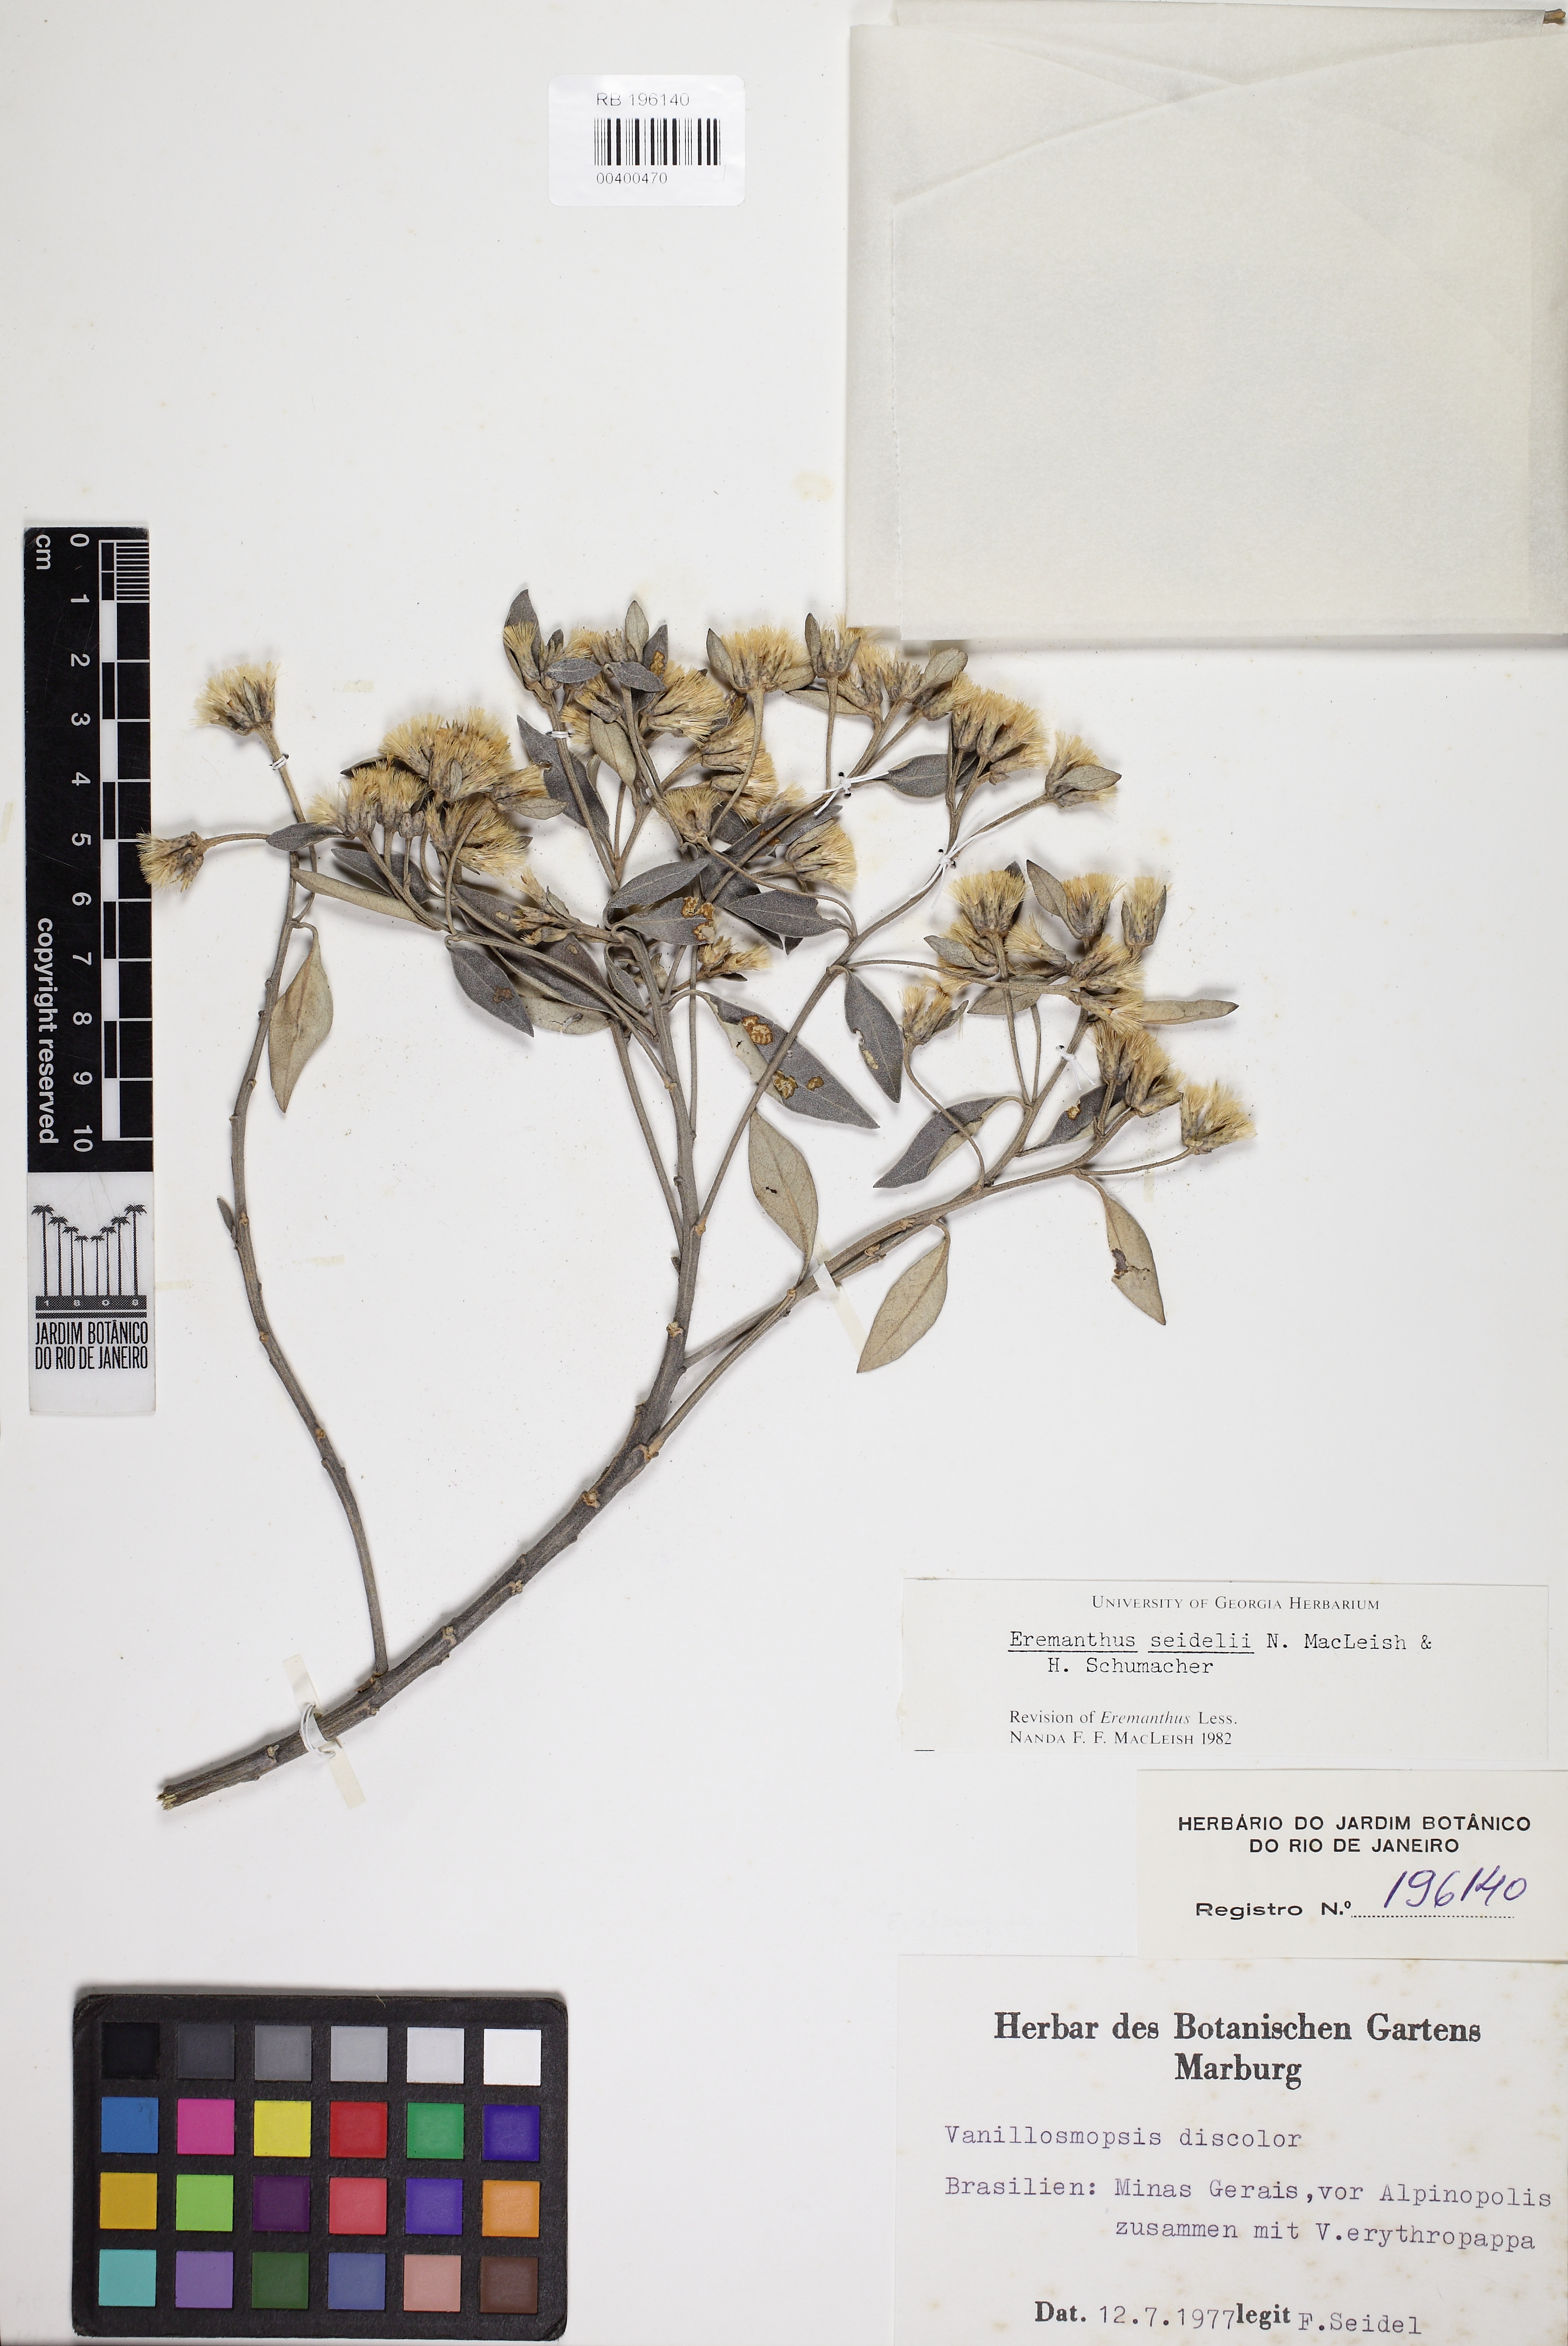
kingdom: Plantae
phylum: Tracheophyta
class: Magnoliopsida
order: Asterales
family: Asteraceae
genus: Eremanthus
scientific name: Eremanthus elaeagnus
